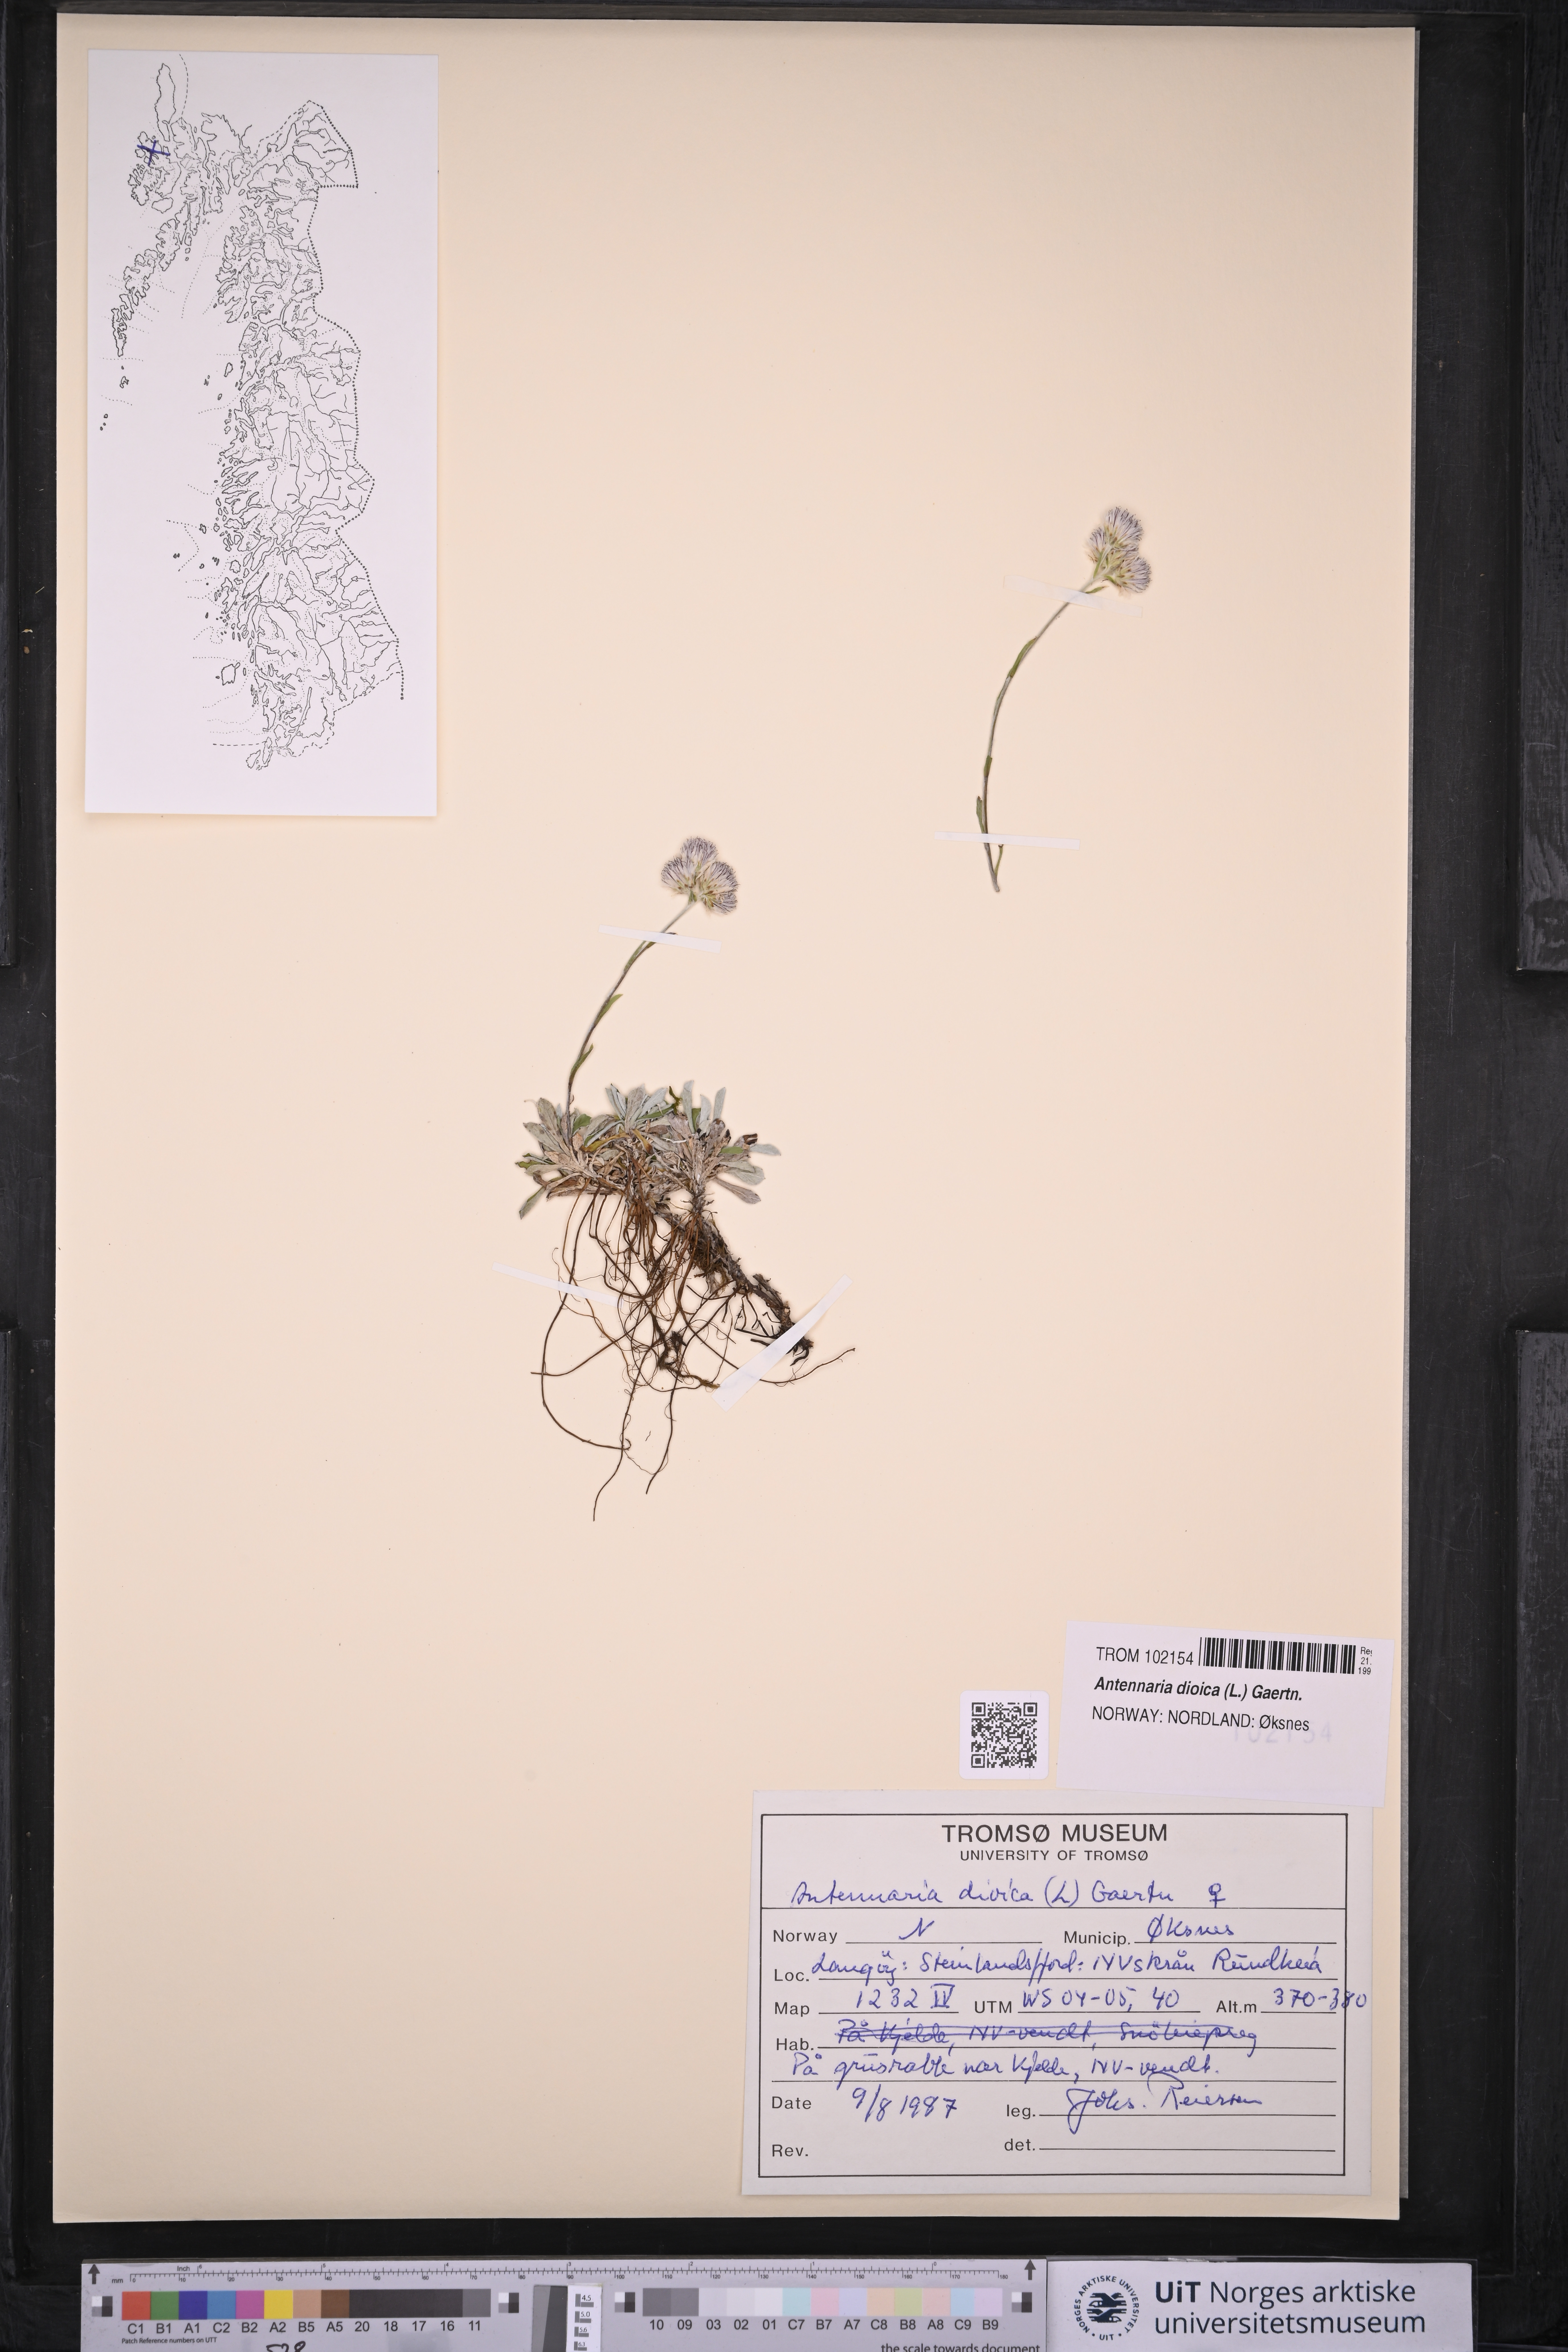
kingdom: Plantae
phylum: Tracheophyta
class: Magnoliopsida
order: Asterales
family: Asteraceae
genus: Antennaria
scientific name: Antennaria dioica
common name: Mountain everlasting
